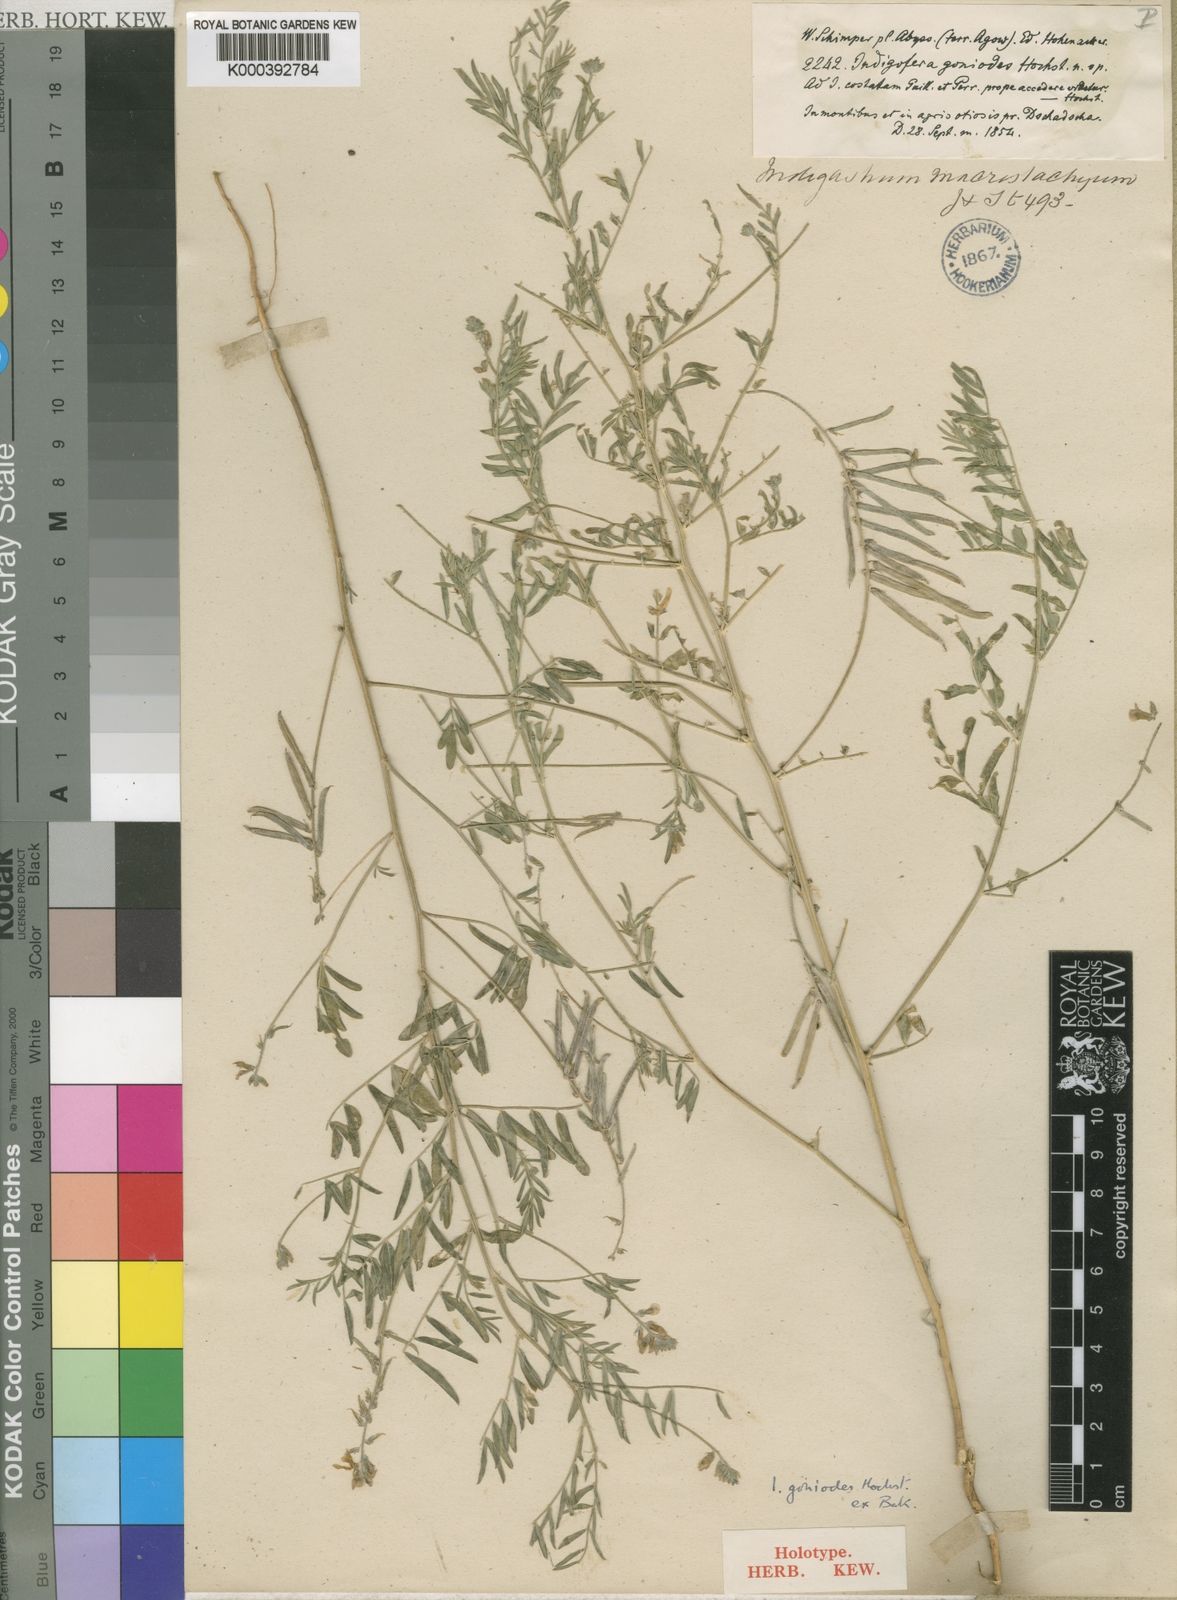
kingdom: Plantae
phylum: Tracheophyta
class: Magnoliopsida
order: Fabales
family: Fabaceae
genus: Indigastrum
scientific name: Indigastrum costatum
